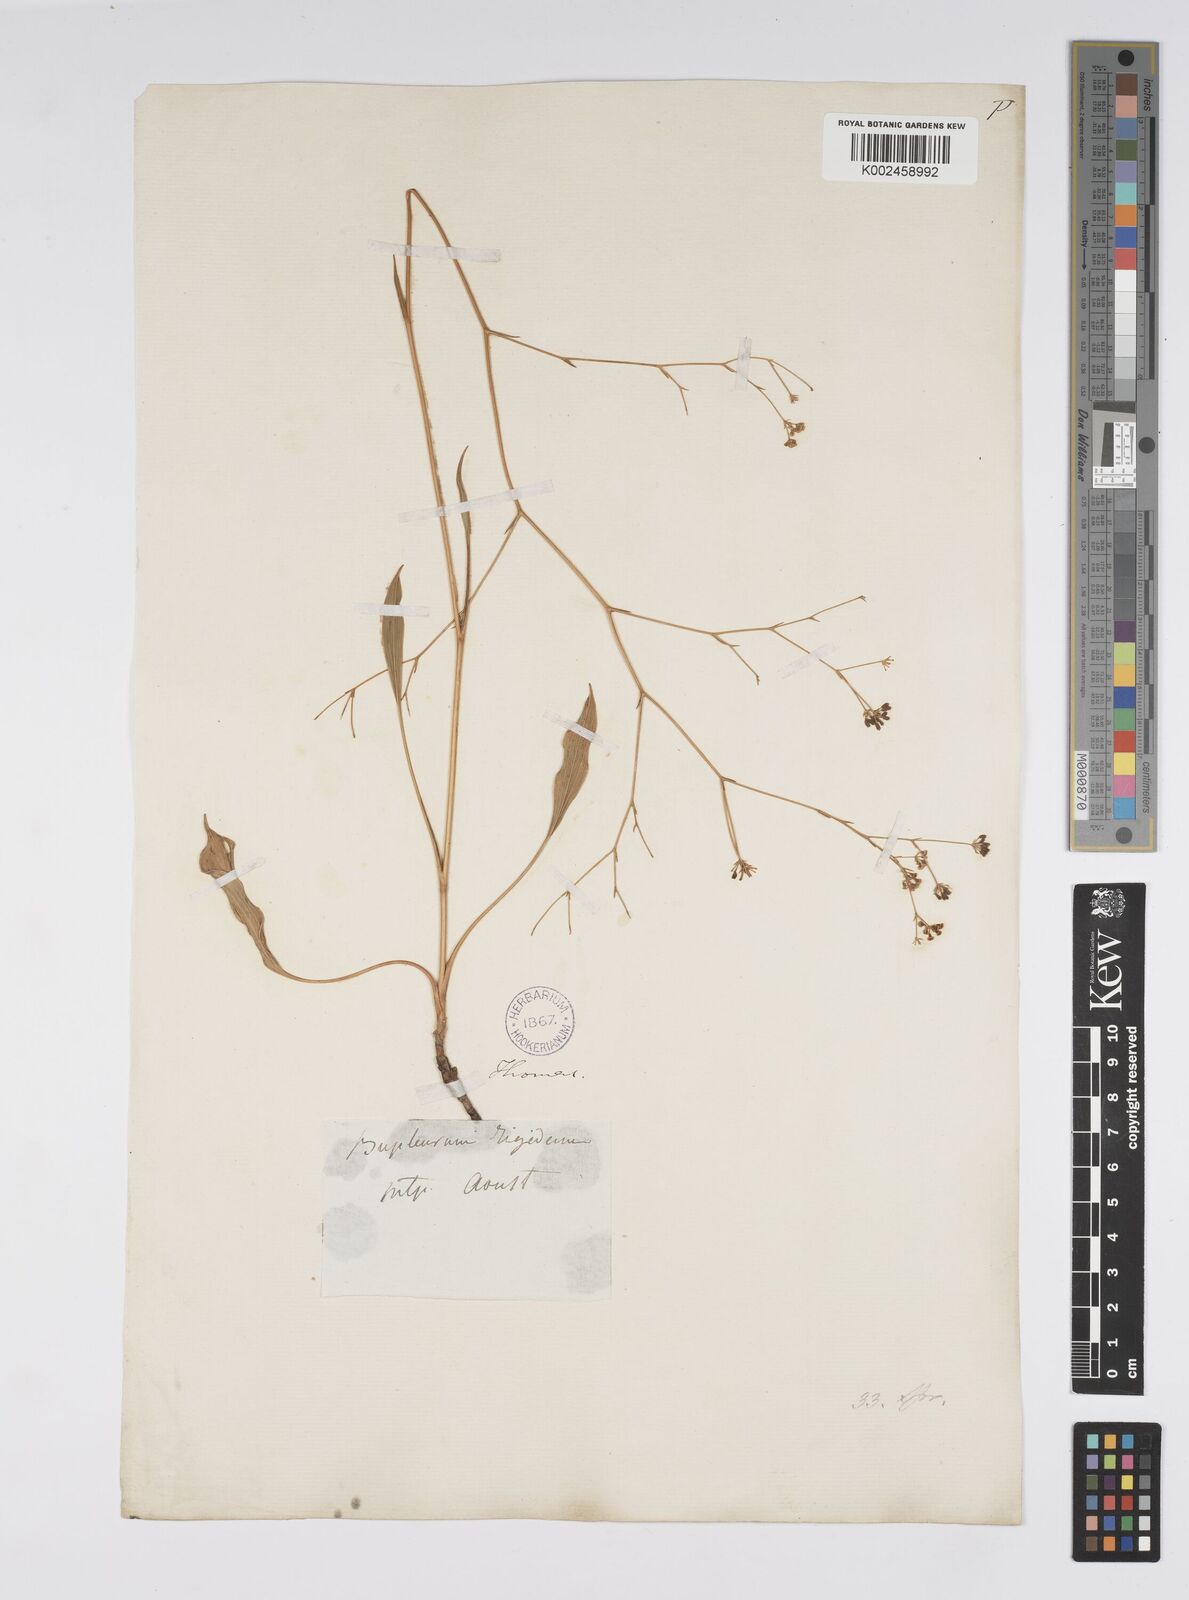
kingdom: Plantae
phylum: Tracheophyta
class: Magnoliopsida
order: Apiales
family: Apiaceae
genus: Bupleurum
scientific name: Bupleurum rigidum
